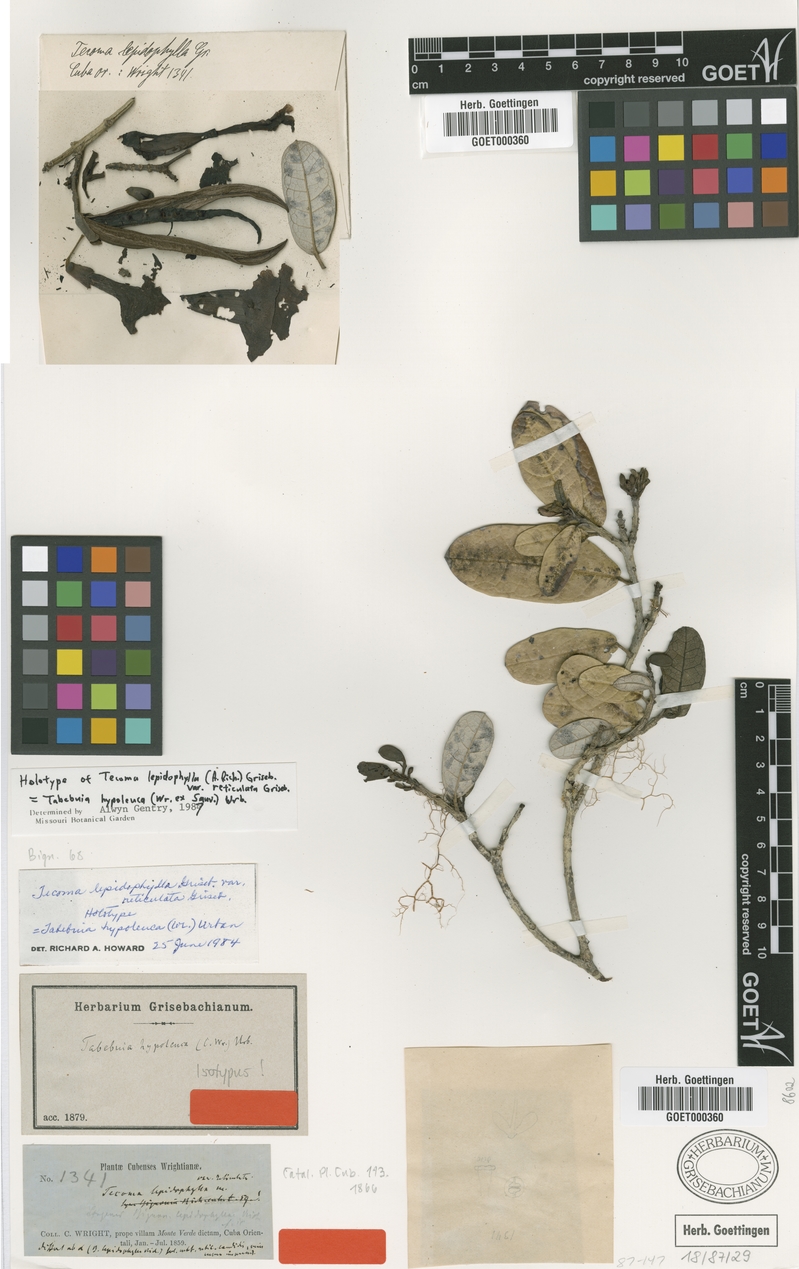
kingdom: Plantae
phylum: Tracheophyta
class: Magnoliopsida
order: Lamiales
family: Bignoniaceae
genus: Tabebuia
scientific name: Tabebuia hypoleuca
